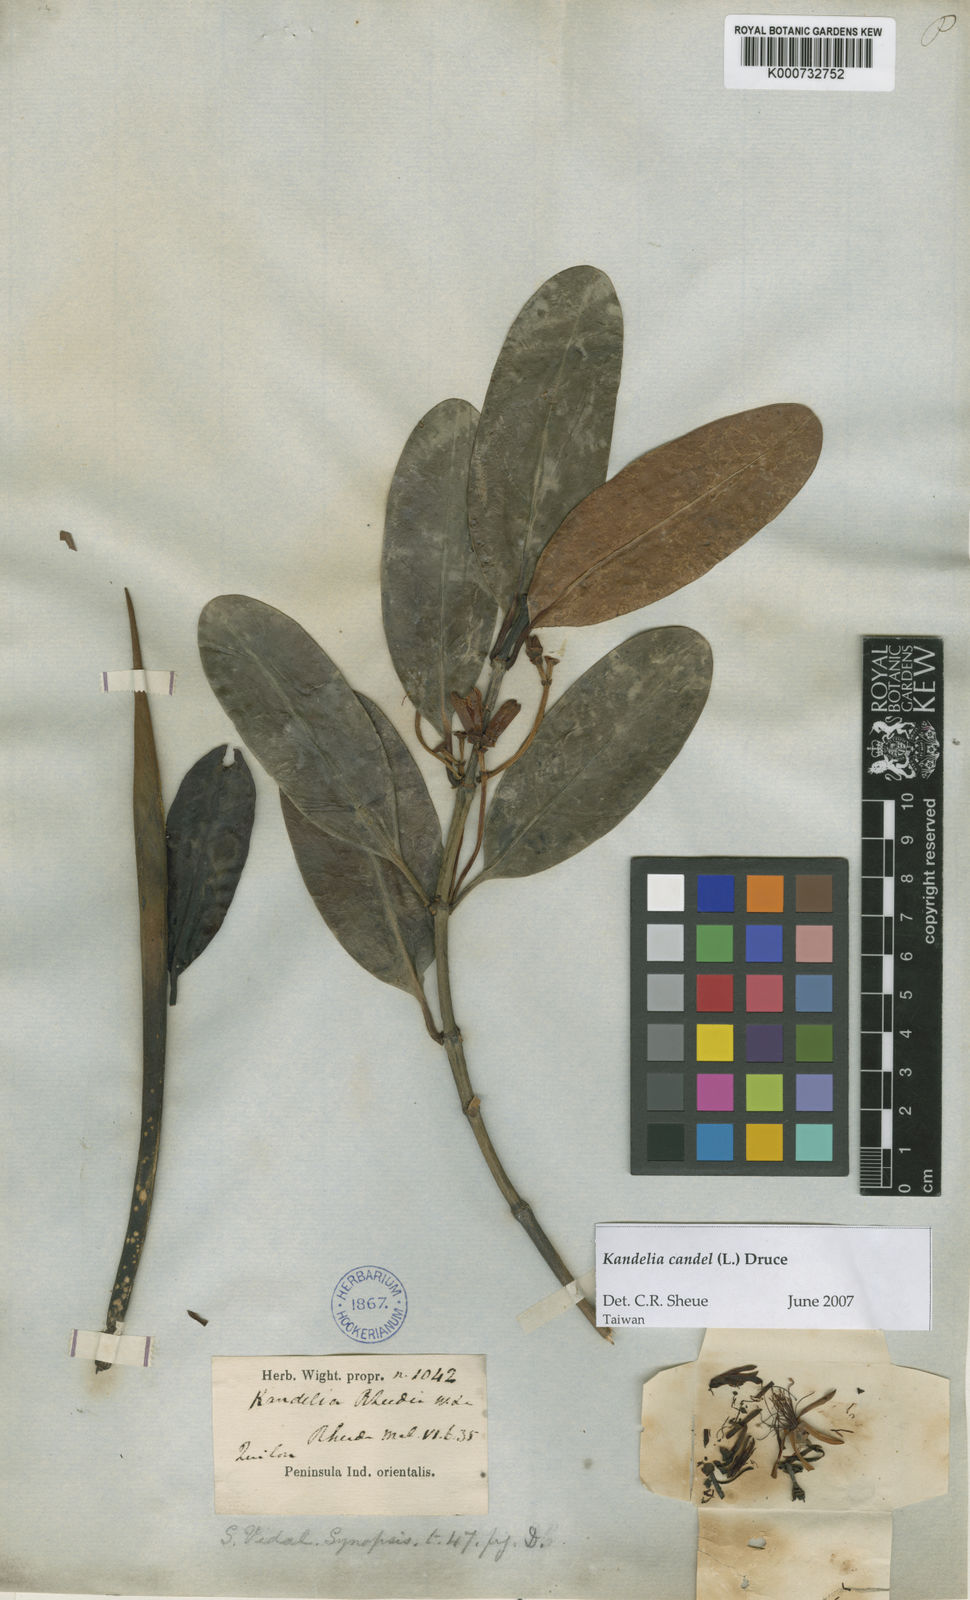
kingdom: Plantae
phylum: Tracheophyta
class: Magnoliopsida
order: Malpighiales
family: Rhizophoraceae
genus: Kandelia
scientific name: Kandelia candel
